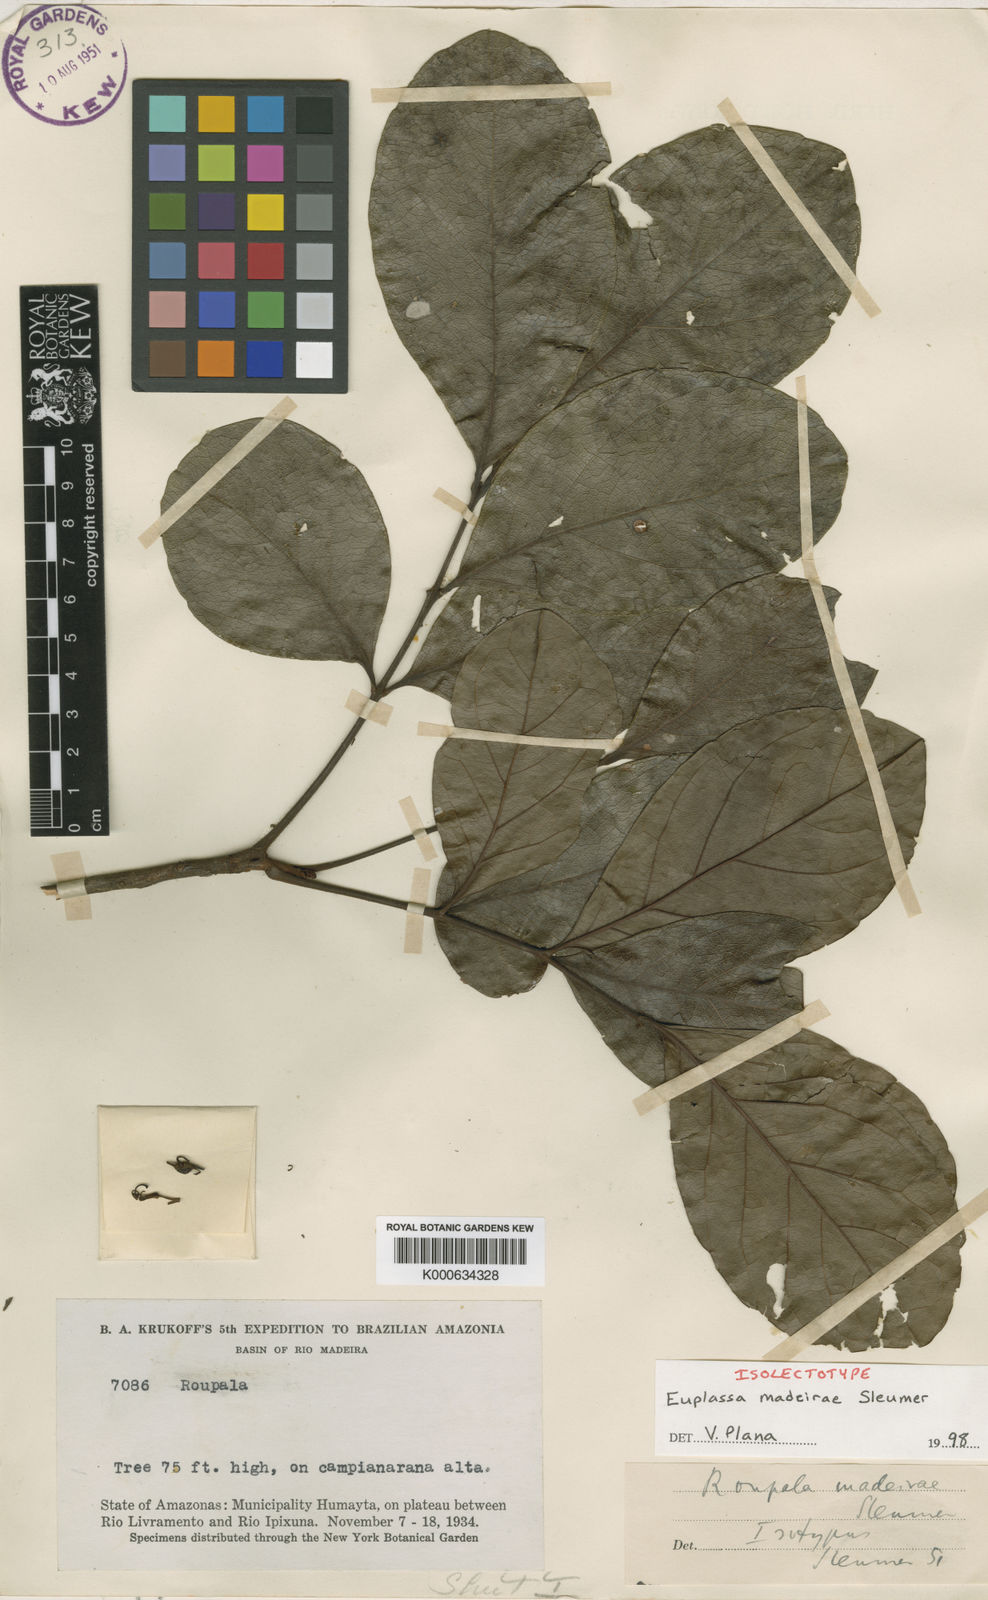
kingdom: Plantae
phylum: Tracheophyta
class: Magnoliopsida
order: Proteales
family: Proteaceae
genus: Euplassa
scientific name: Euplassa madeirae
